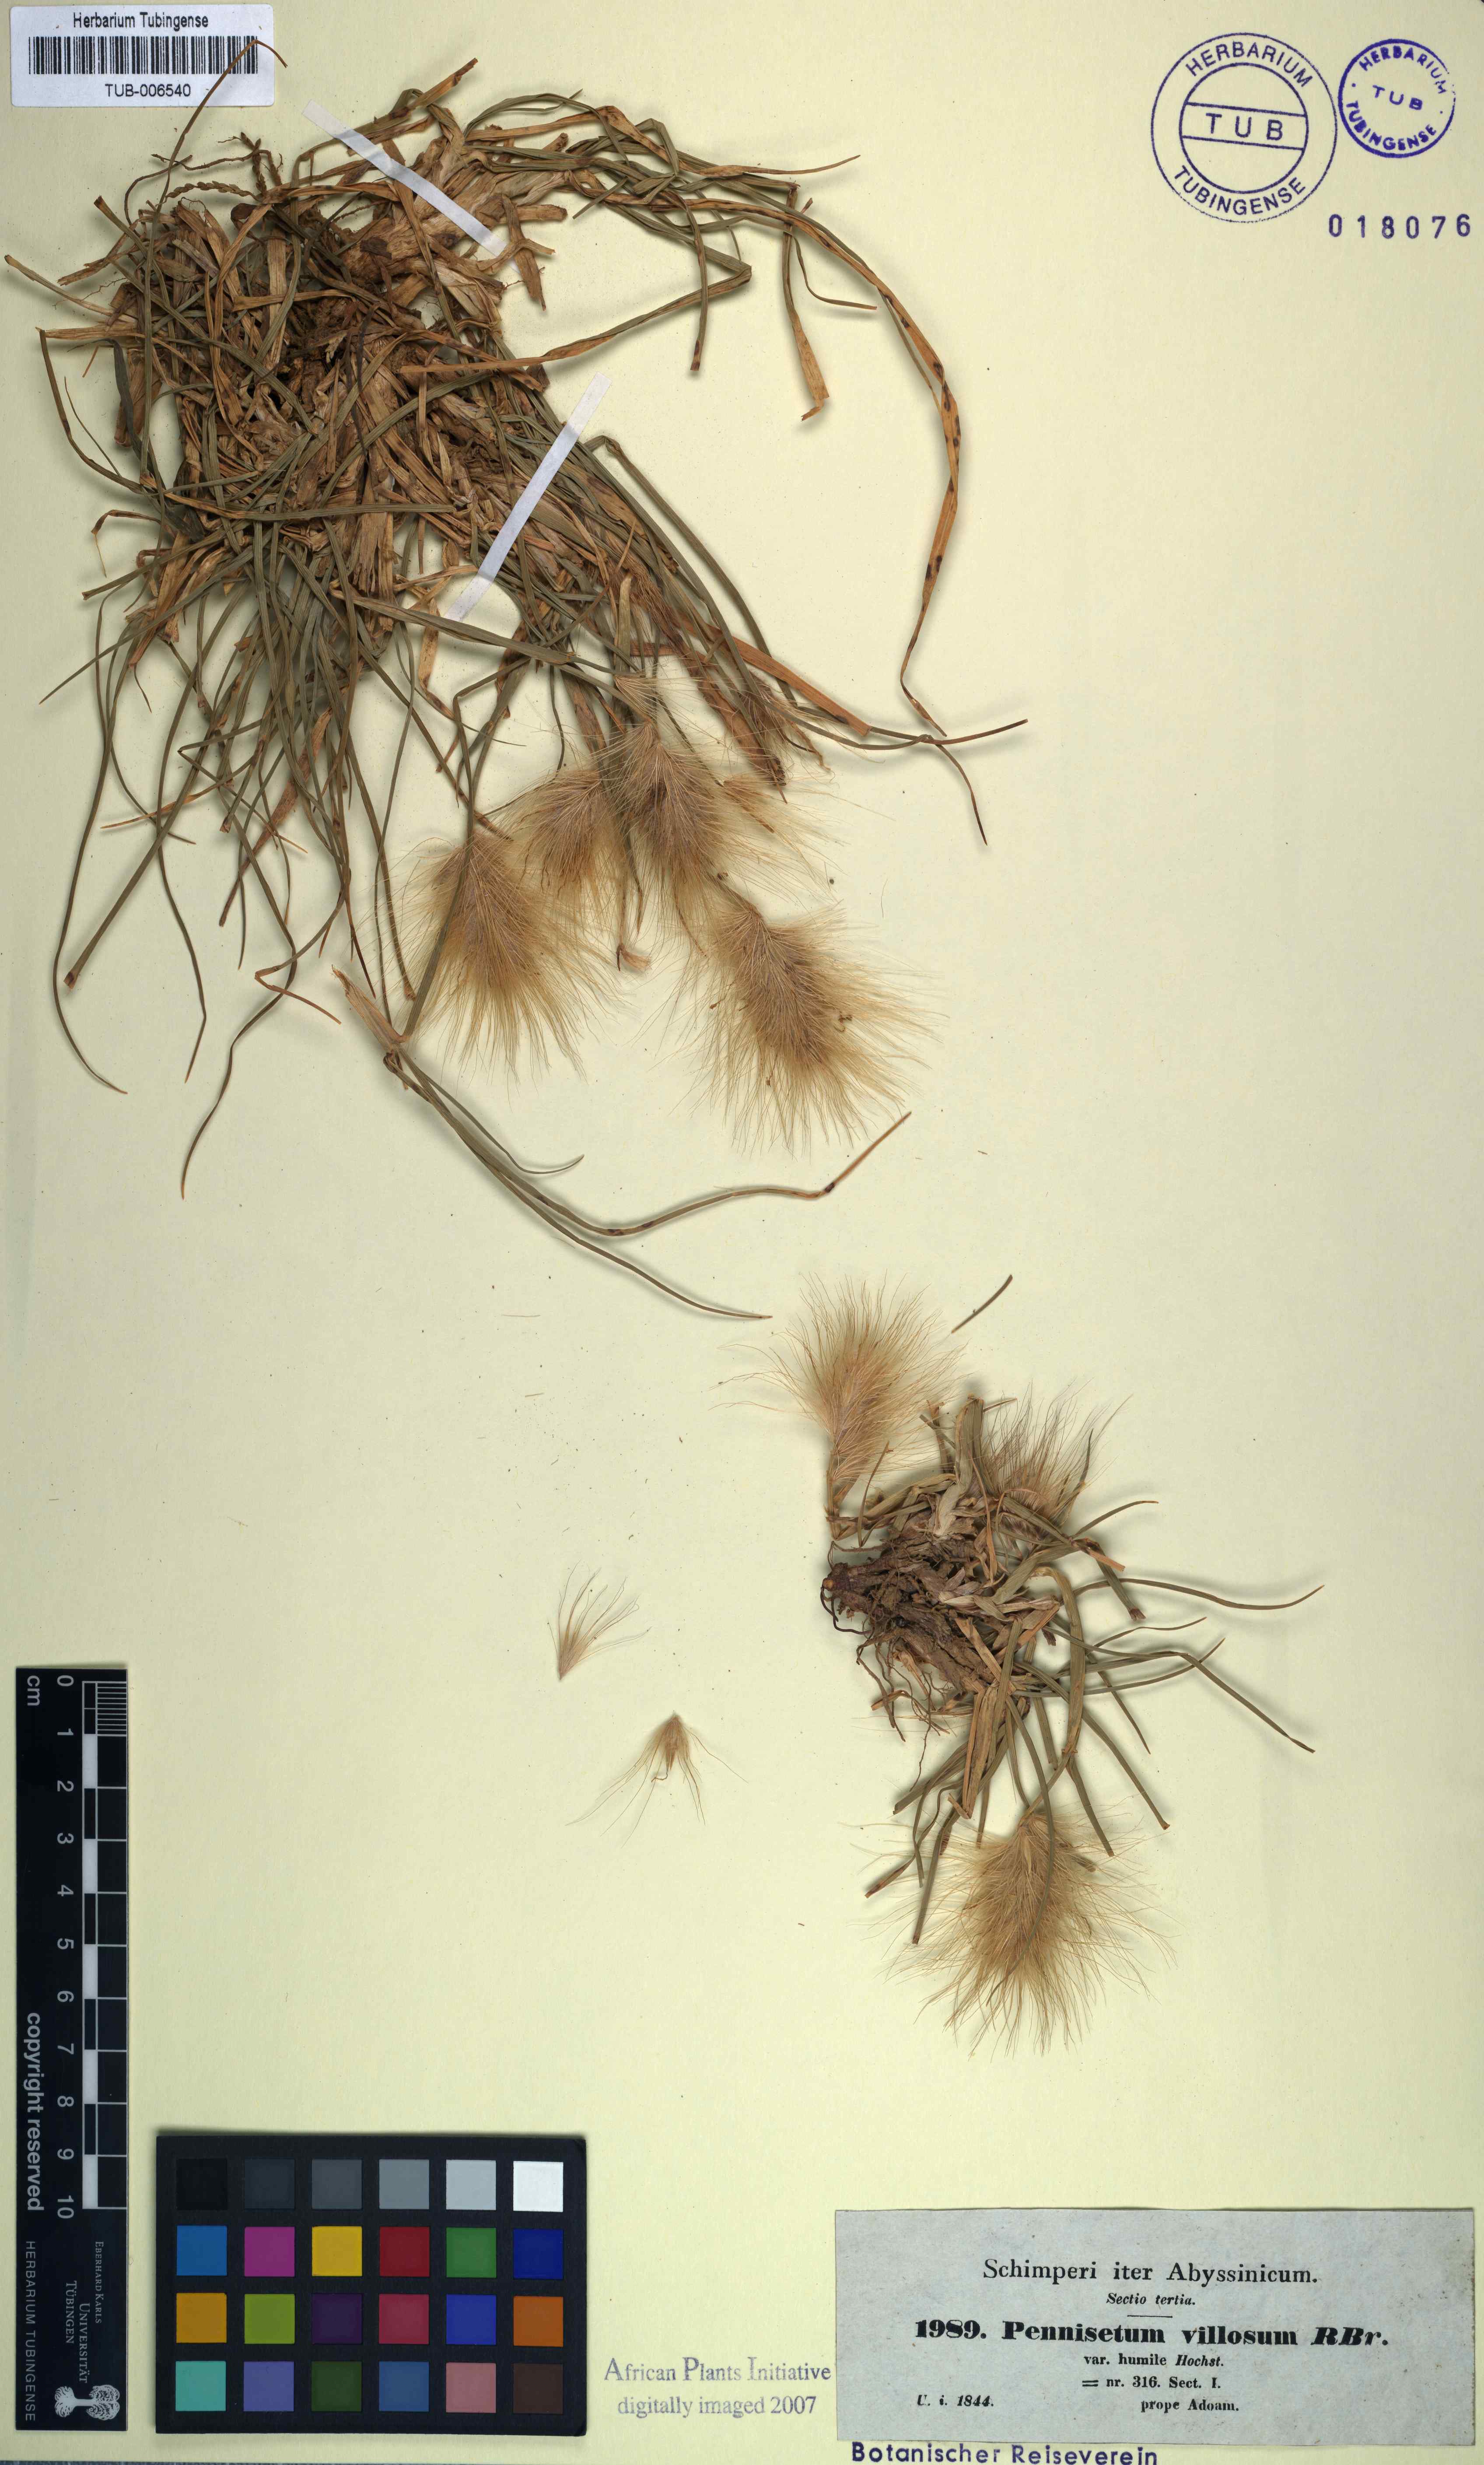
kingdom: Plantae
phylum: Tracheophyta
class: Liliopsida
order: Poales
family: Poaceae
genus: Cenchrus
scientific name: Cenchrus longisetus
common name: Feathertop
